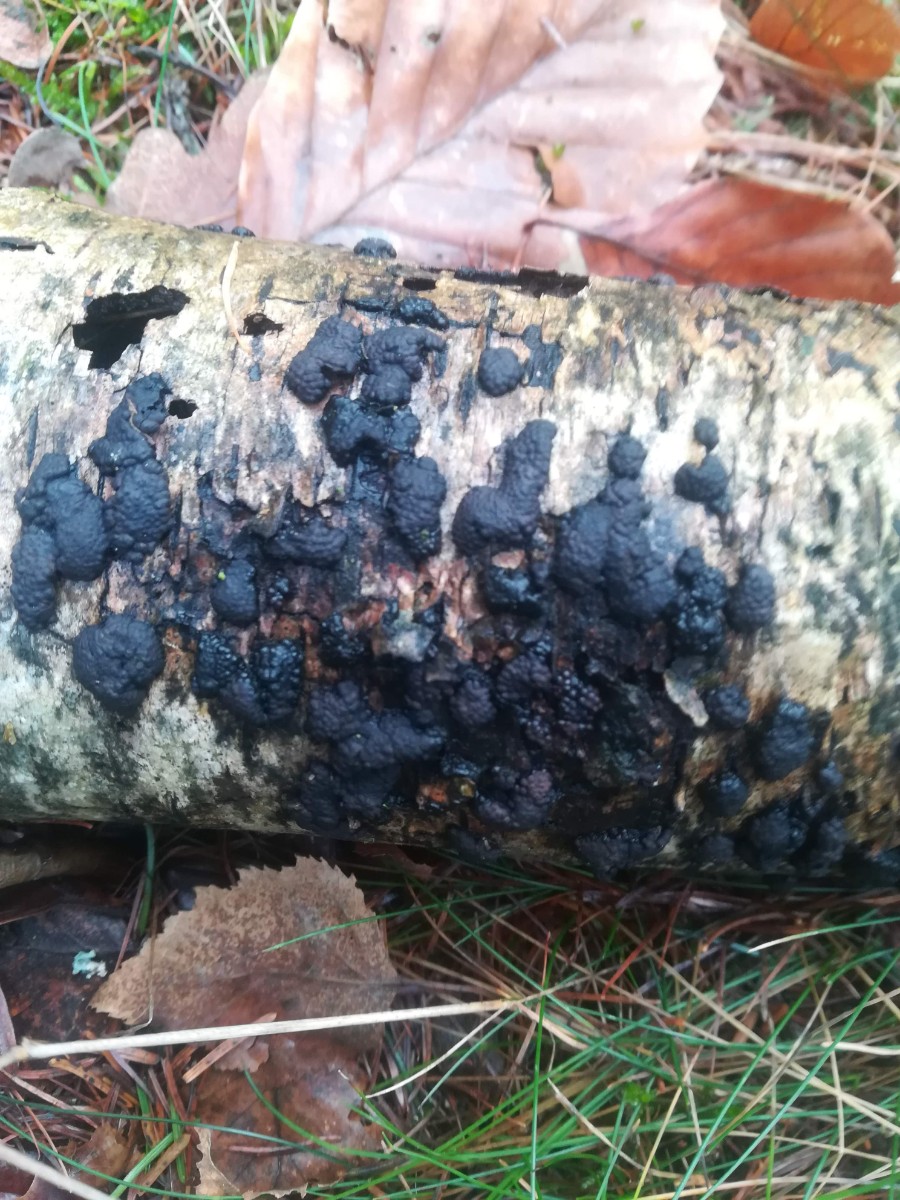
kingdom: Fungi
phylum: Ascomycota
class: Sordariomycetes
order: Xylariales
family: Hypoxylaceae
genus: Jackrogersella
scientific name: Jackrogersella multiformis
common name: foranderlig kulbær
